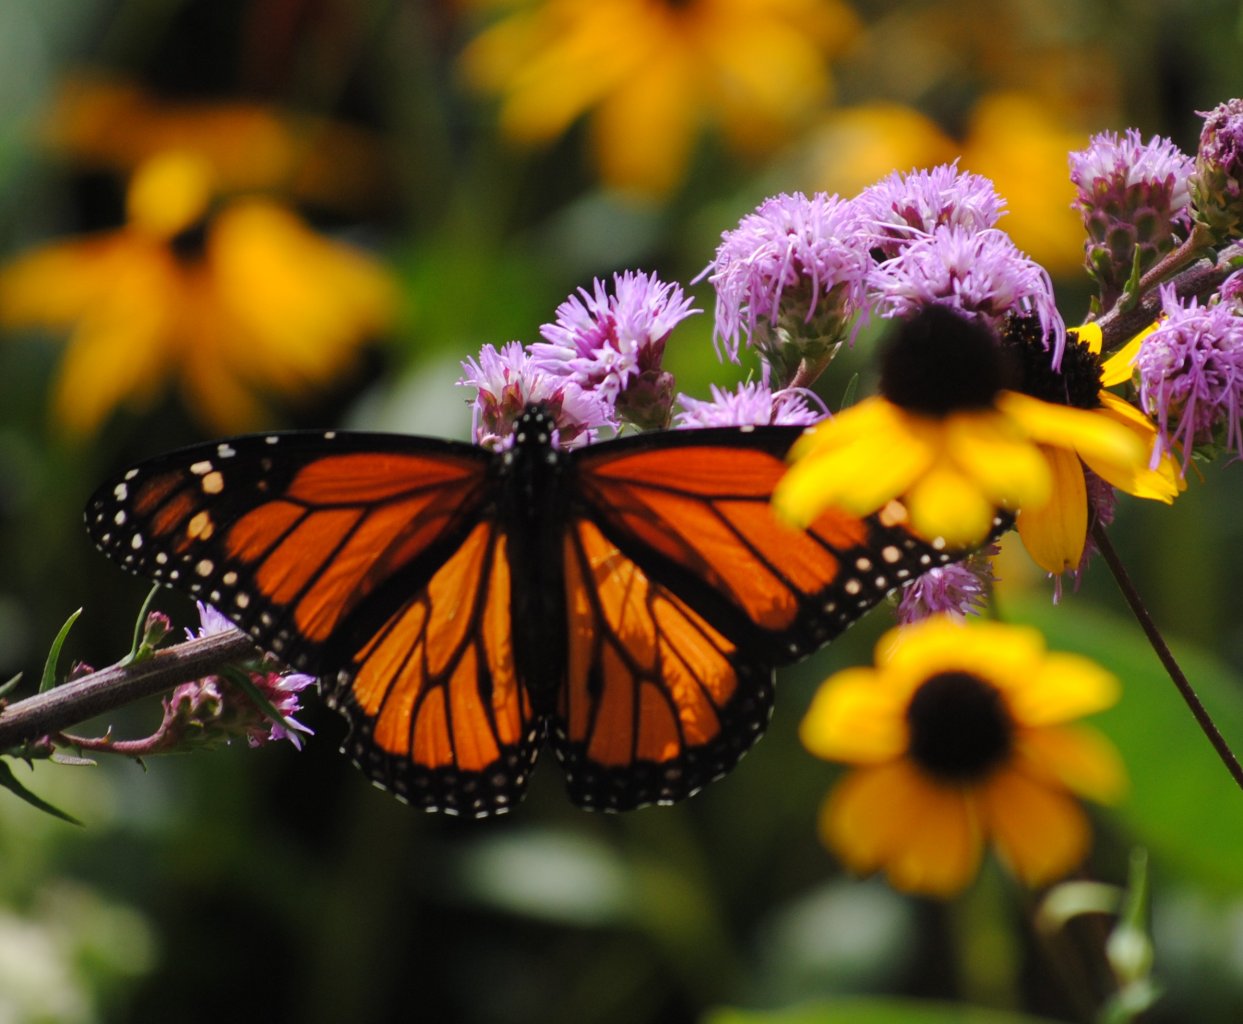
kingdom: Animalia
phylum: Arthropoda
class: Insecta
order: Lepidoptera
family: Nymphalidae
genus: Danaus
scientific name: Danaus plexippus
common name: Monarch
